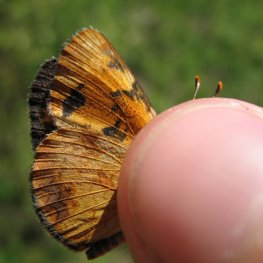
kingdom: Animalia
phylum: Arthropoda
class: Insecta
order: Lepidoptera
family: Nymphalidae
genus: Phyciodes
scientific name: Phyciodes tharos
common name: Northern Crescent
